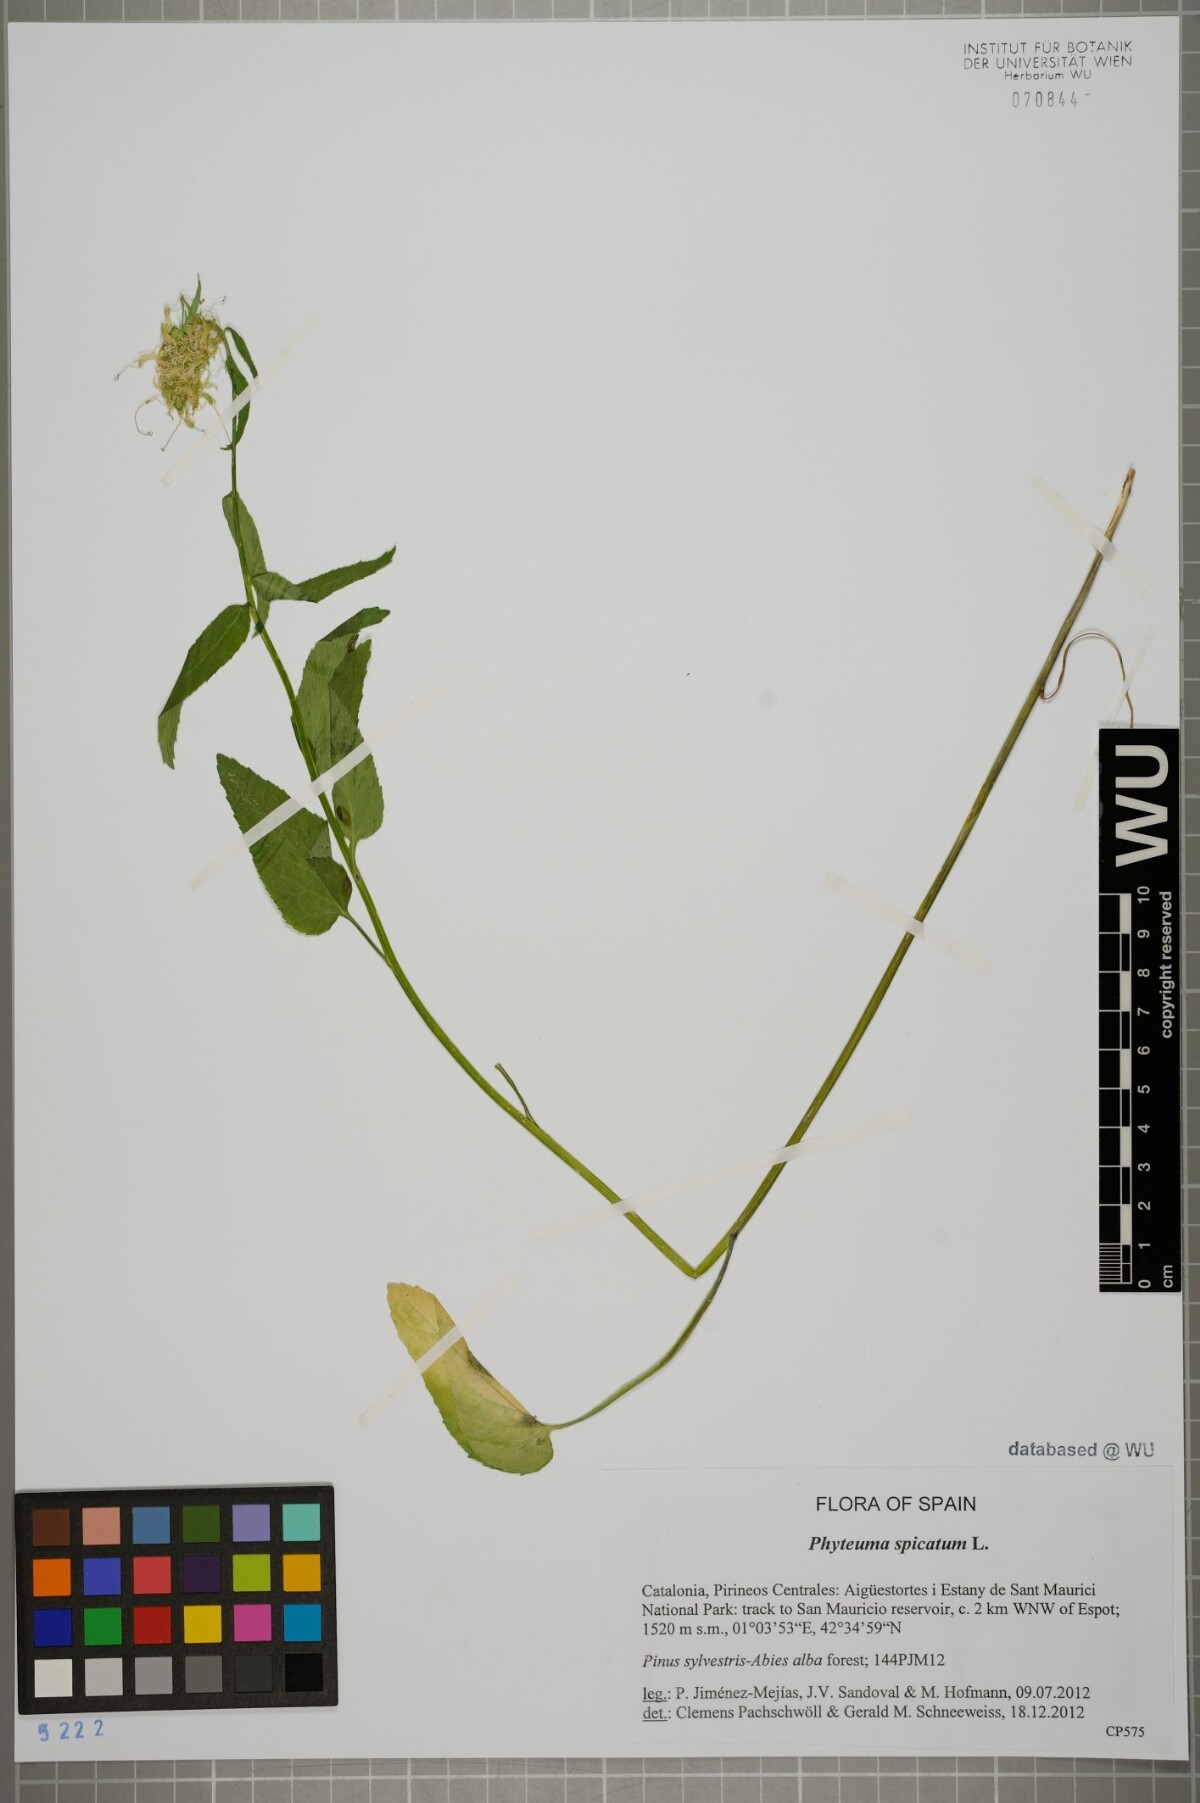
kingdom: Plantae
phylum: Tracheophyta
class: Magnoliopsida
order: Asterales
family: Campanulaceae
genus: Phyteuma
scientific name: Phyteuma spicatum
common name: Spiked rampion
